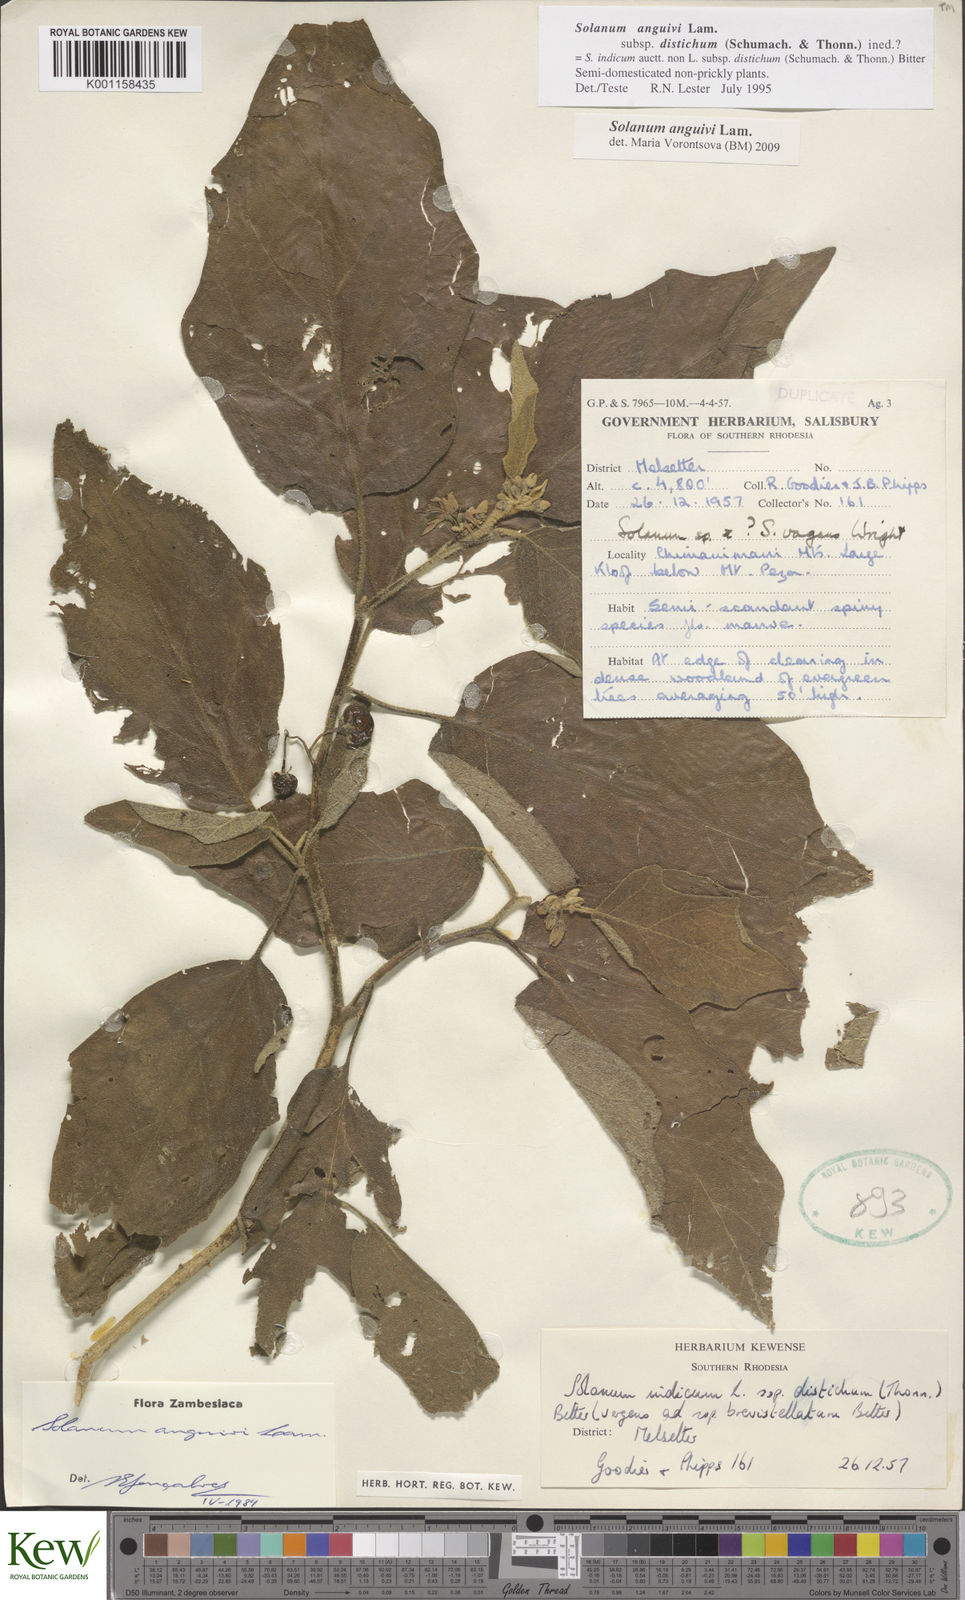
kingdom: Plantae
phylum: Tracheophyta
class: Magnoliopsida
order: Solanales
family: Solanaceae
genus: Solanum
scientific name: Solanum anguivi
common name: Forest bitterberry
